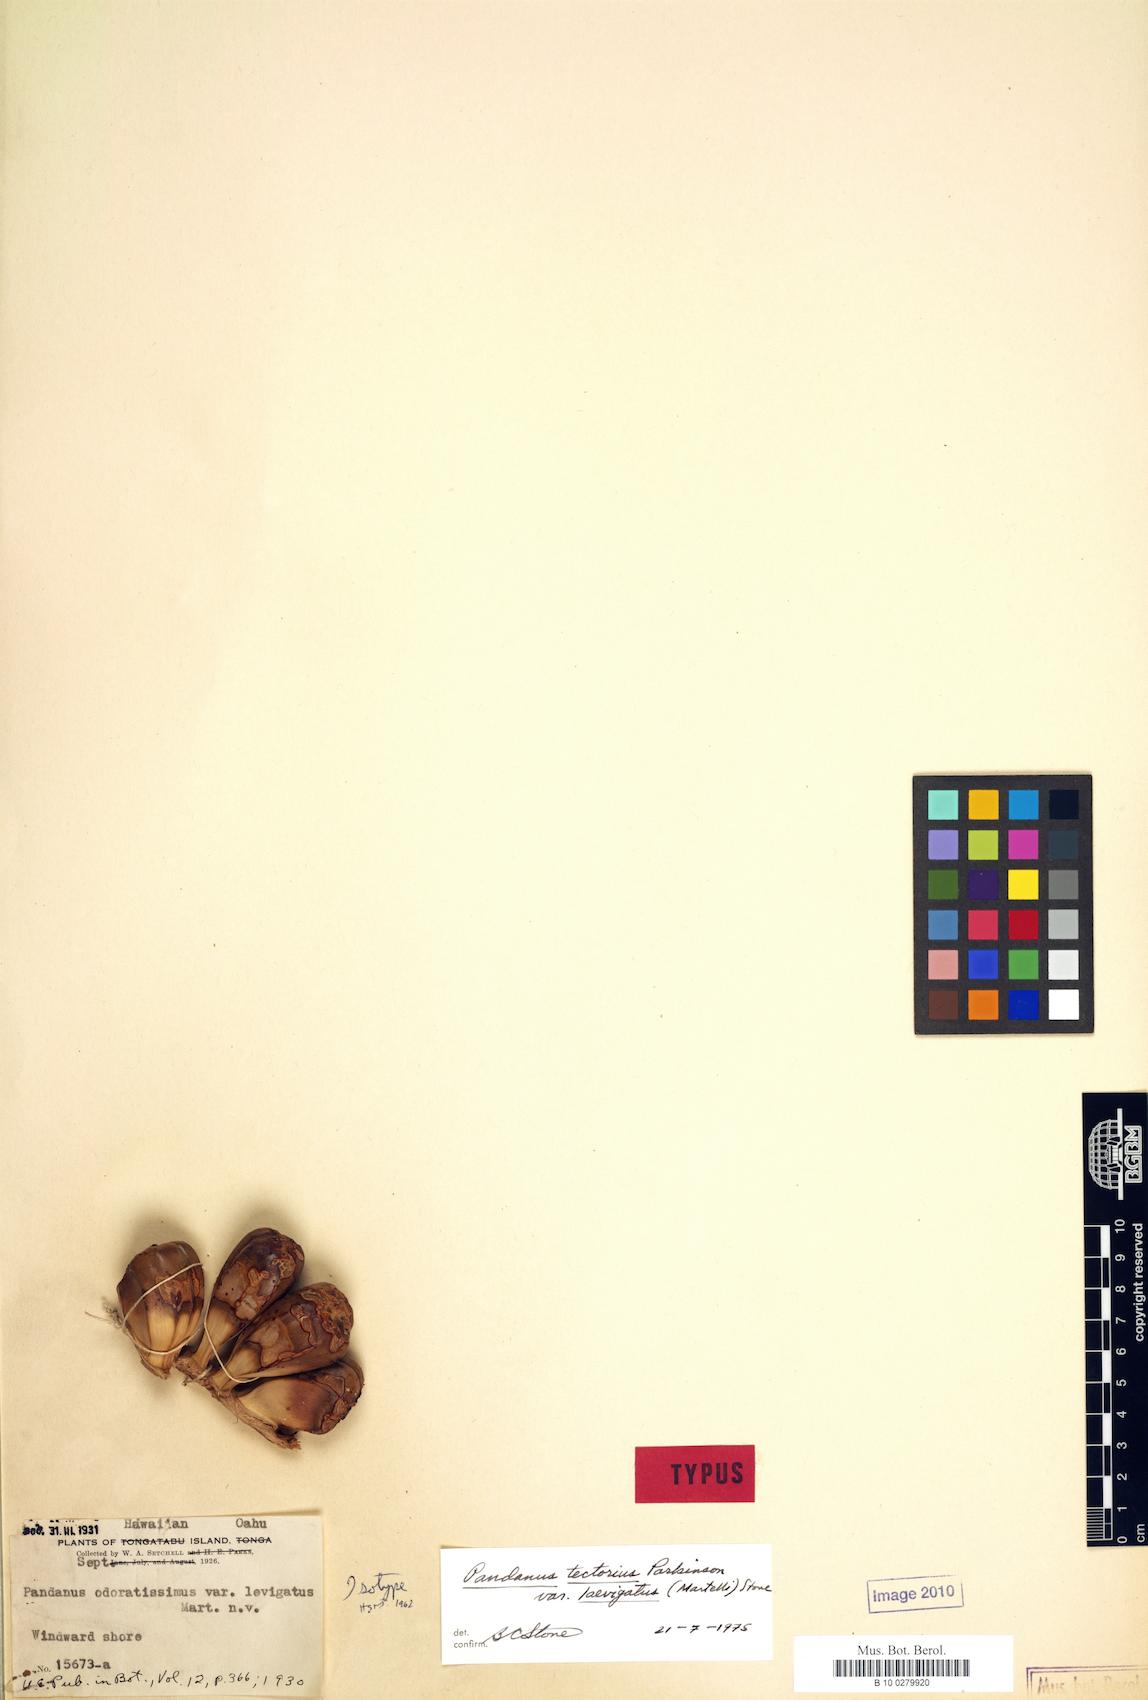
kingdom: Plantae
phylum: Tracheophyta
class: Liliopsida
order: Pandanales
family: Pandanaceae
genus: Pandanus
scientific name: Pandanus tectorius
